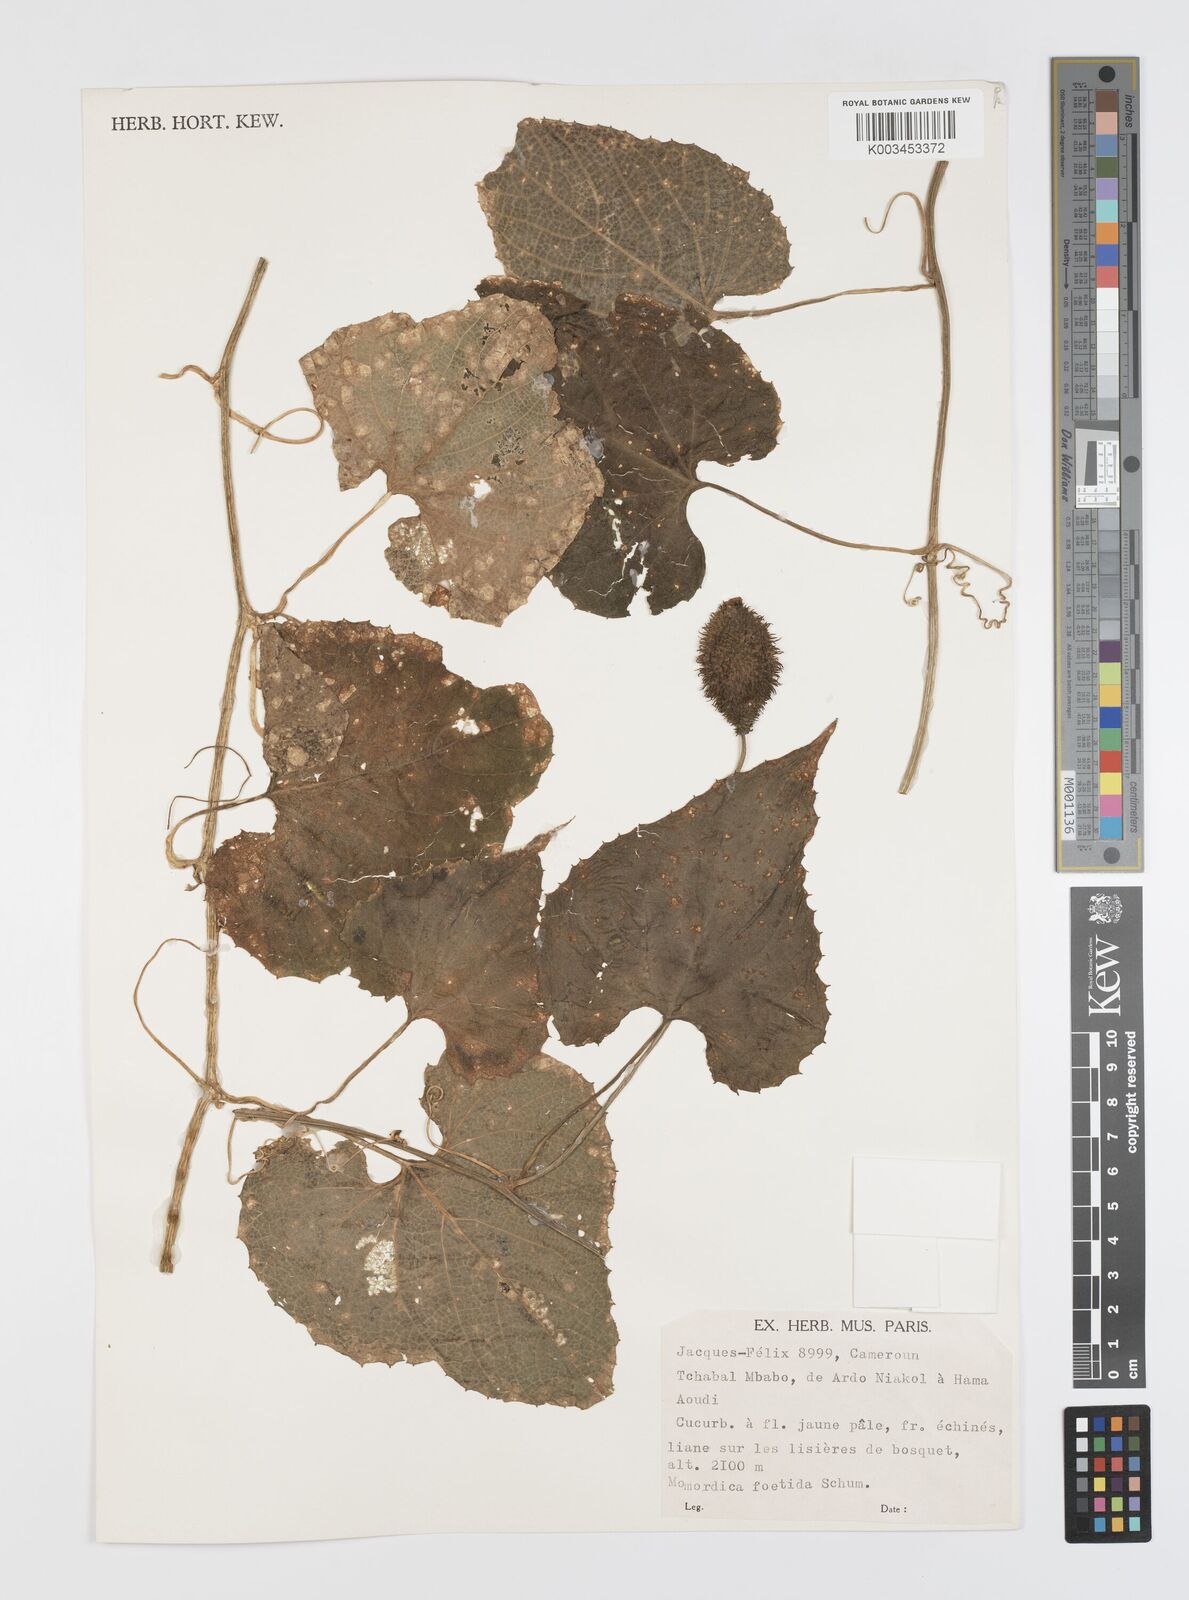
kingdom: Plantae
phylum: Tracheophyta
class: Magnoliopsida
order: Cucurbitales
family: Cucurbitaceae
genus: Momordica
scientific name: Momordica foetida
